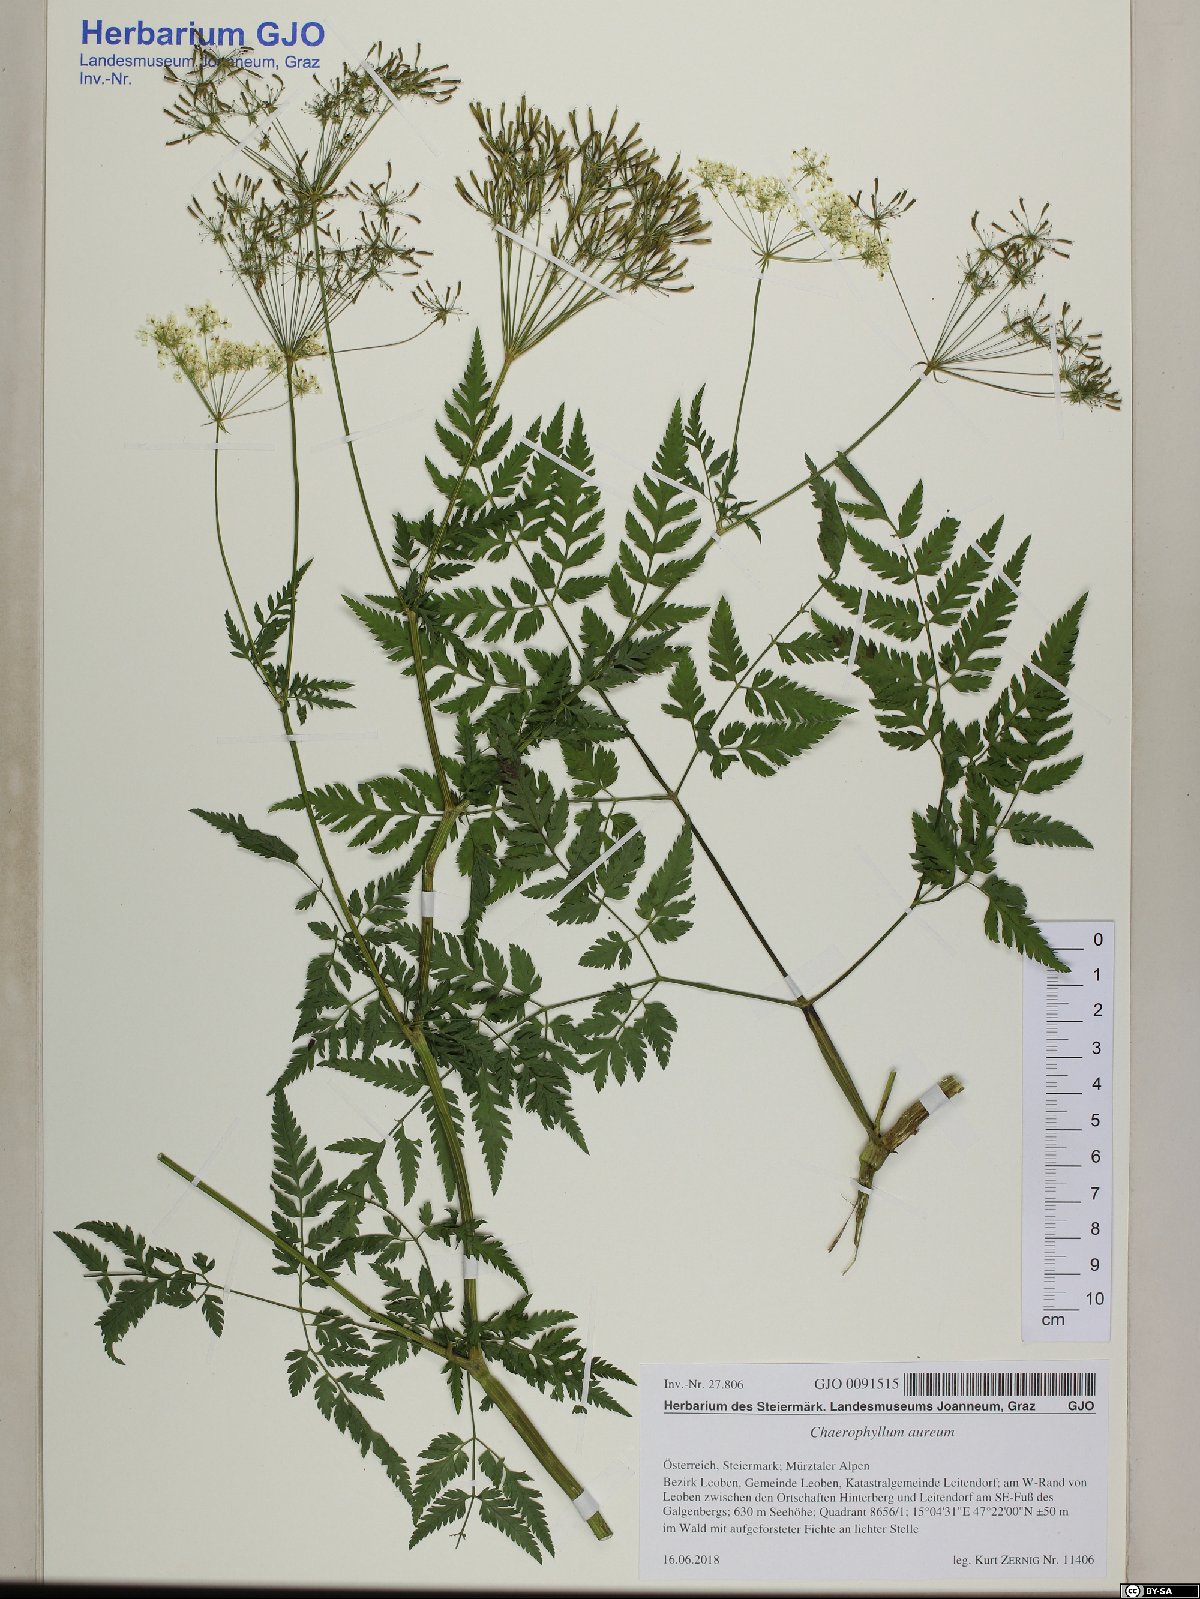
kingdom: Plantae
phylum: Tracheophyta
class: Magnoliopsida
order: Apiales
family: Apiaceae
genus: Chaerophyllum
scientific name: Chaerophyllum aureum
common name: Golden chervil
